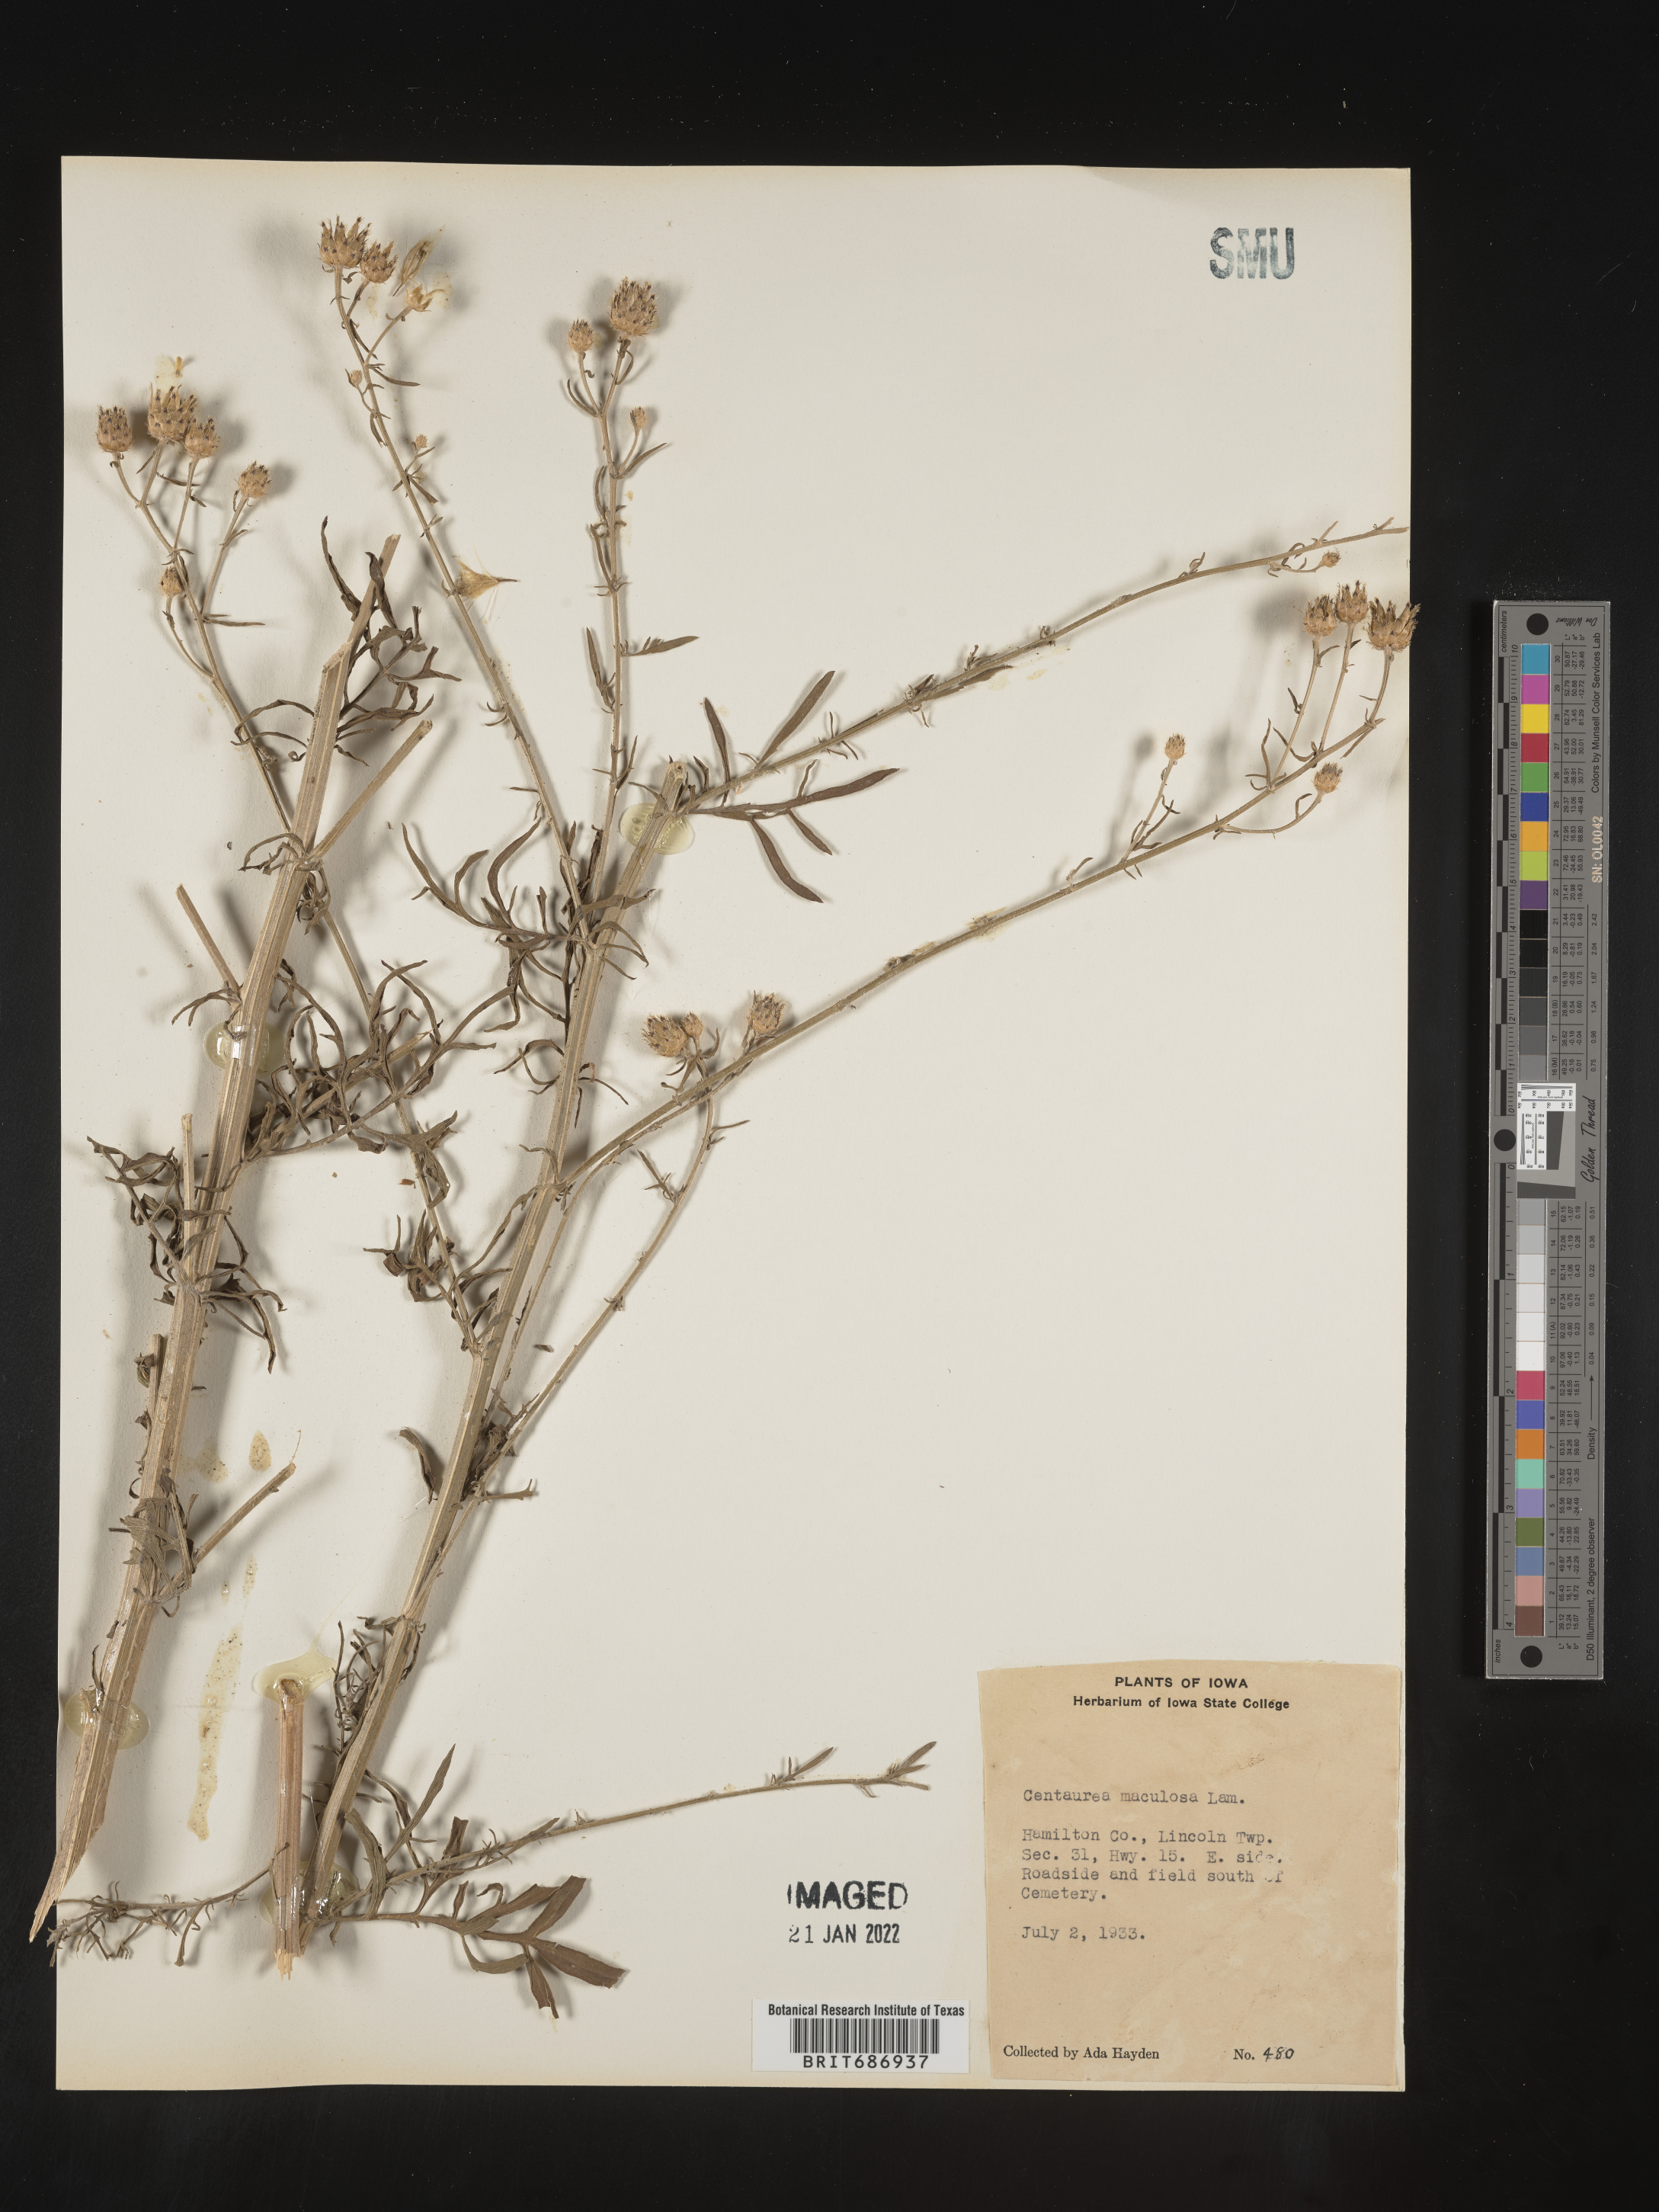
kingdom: Plantae
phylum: Tracheophyta
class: Magnoliopsida
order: Asterales
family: Asteraceae
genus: Centaurea
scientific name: Centaurea
